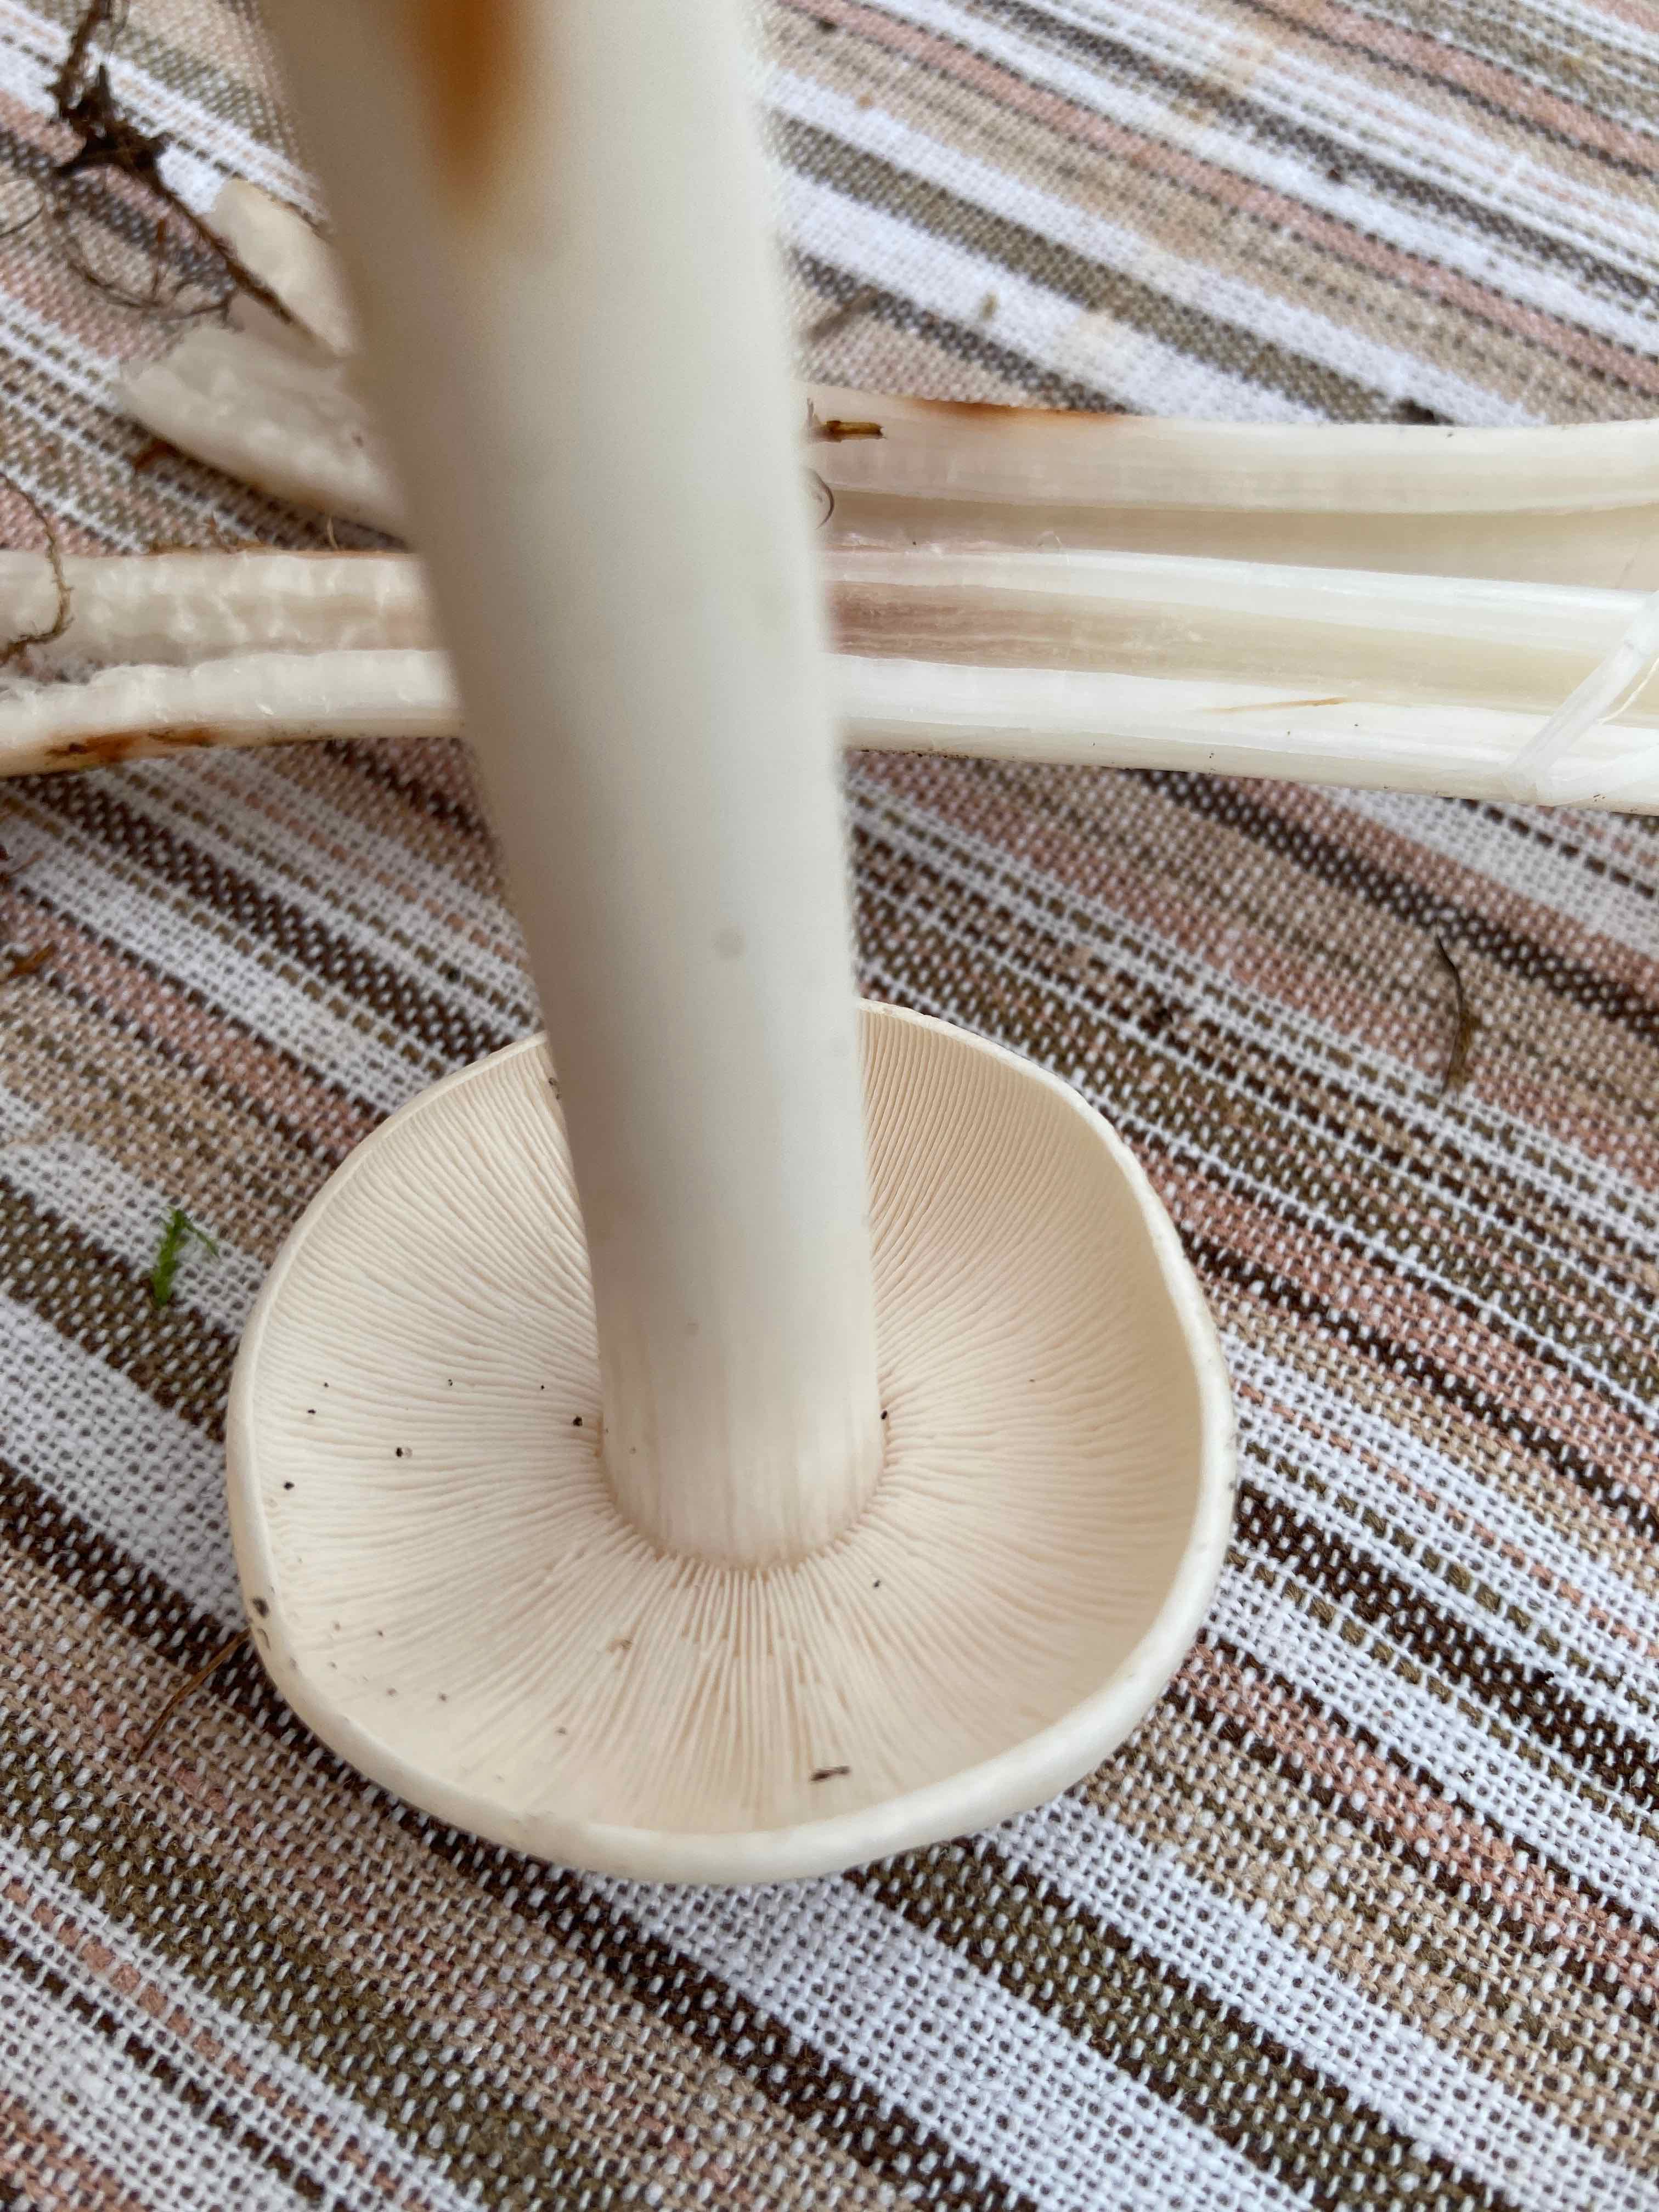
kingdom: Fungi
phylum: Basidiomycota
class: Agaricomycetes
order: Agaricales
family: Omphalotaceae
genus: Rhodocollybia
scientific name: Rhodocollybia maculata
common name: plettet fladhat
